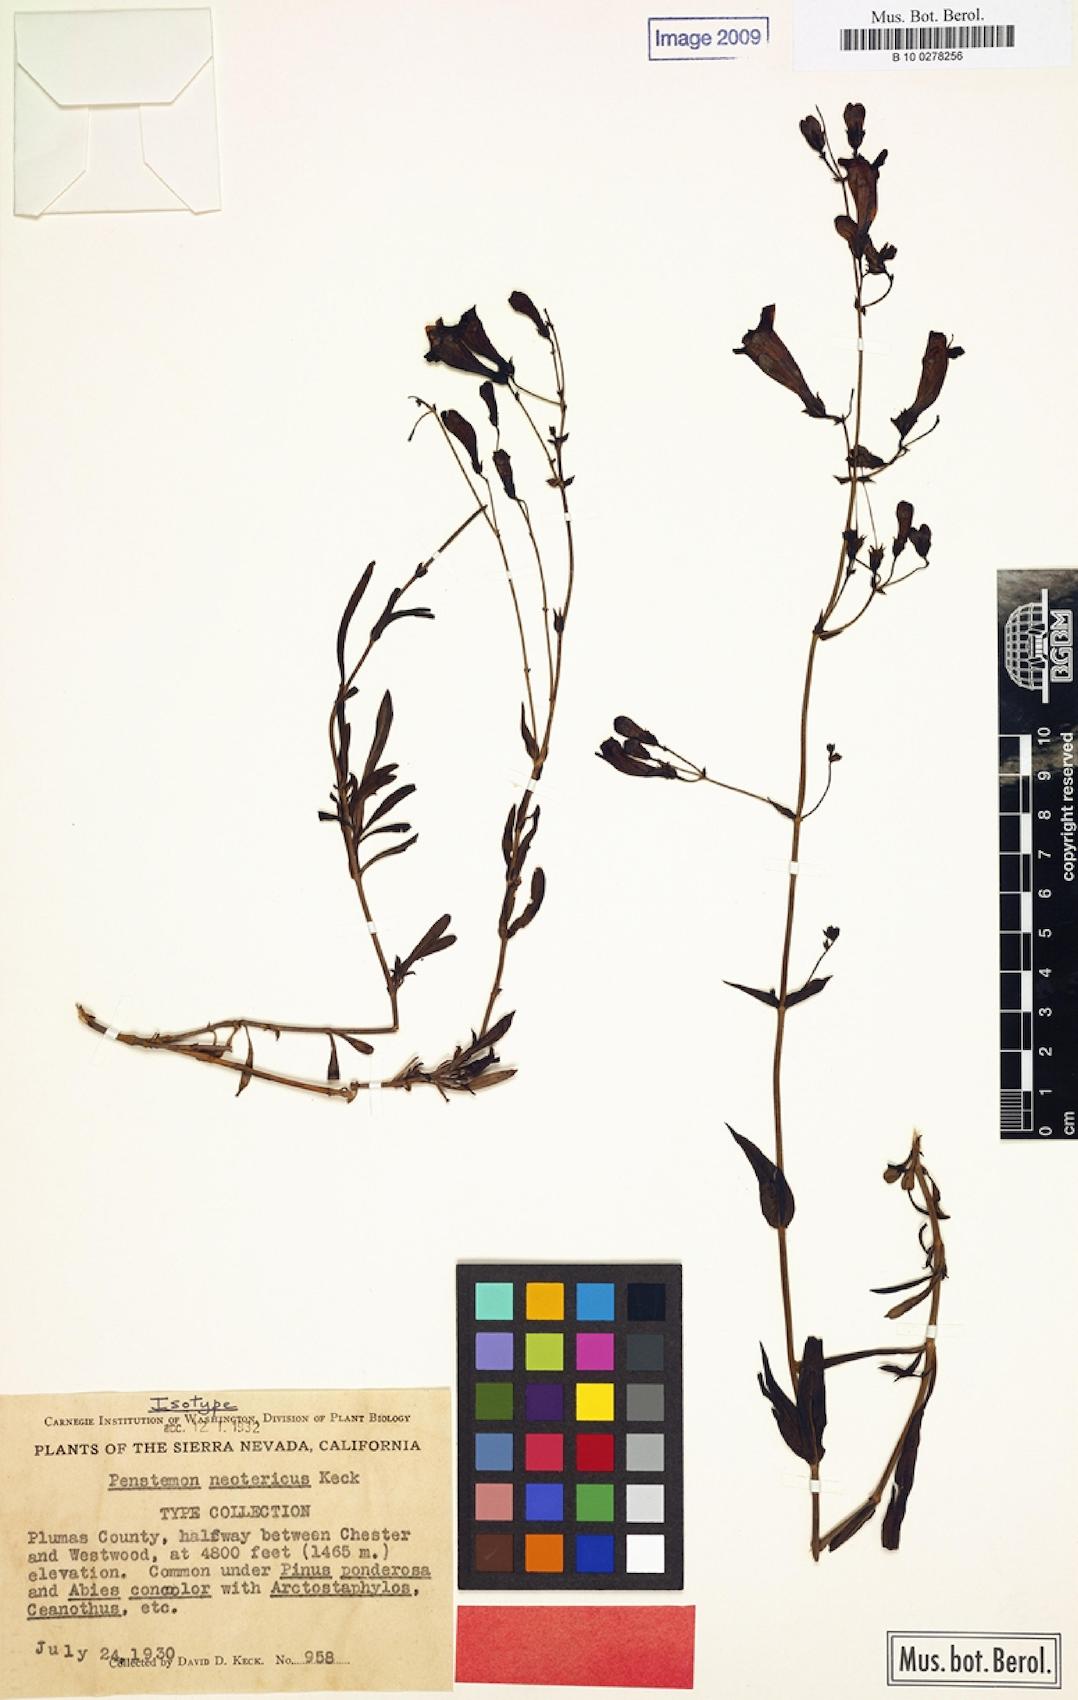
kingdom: Plantae
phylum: Tracheophyta
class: Magnoliopsida
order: Lamiales
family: Plantaginaceae
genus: Penstemon
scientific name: Penstemon neotericus
